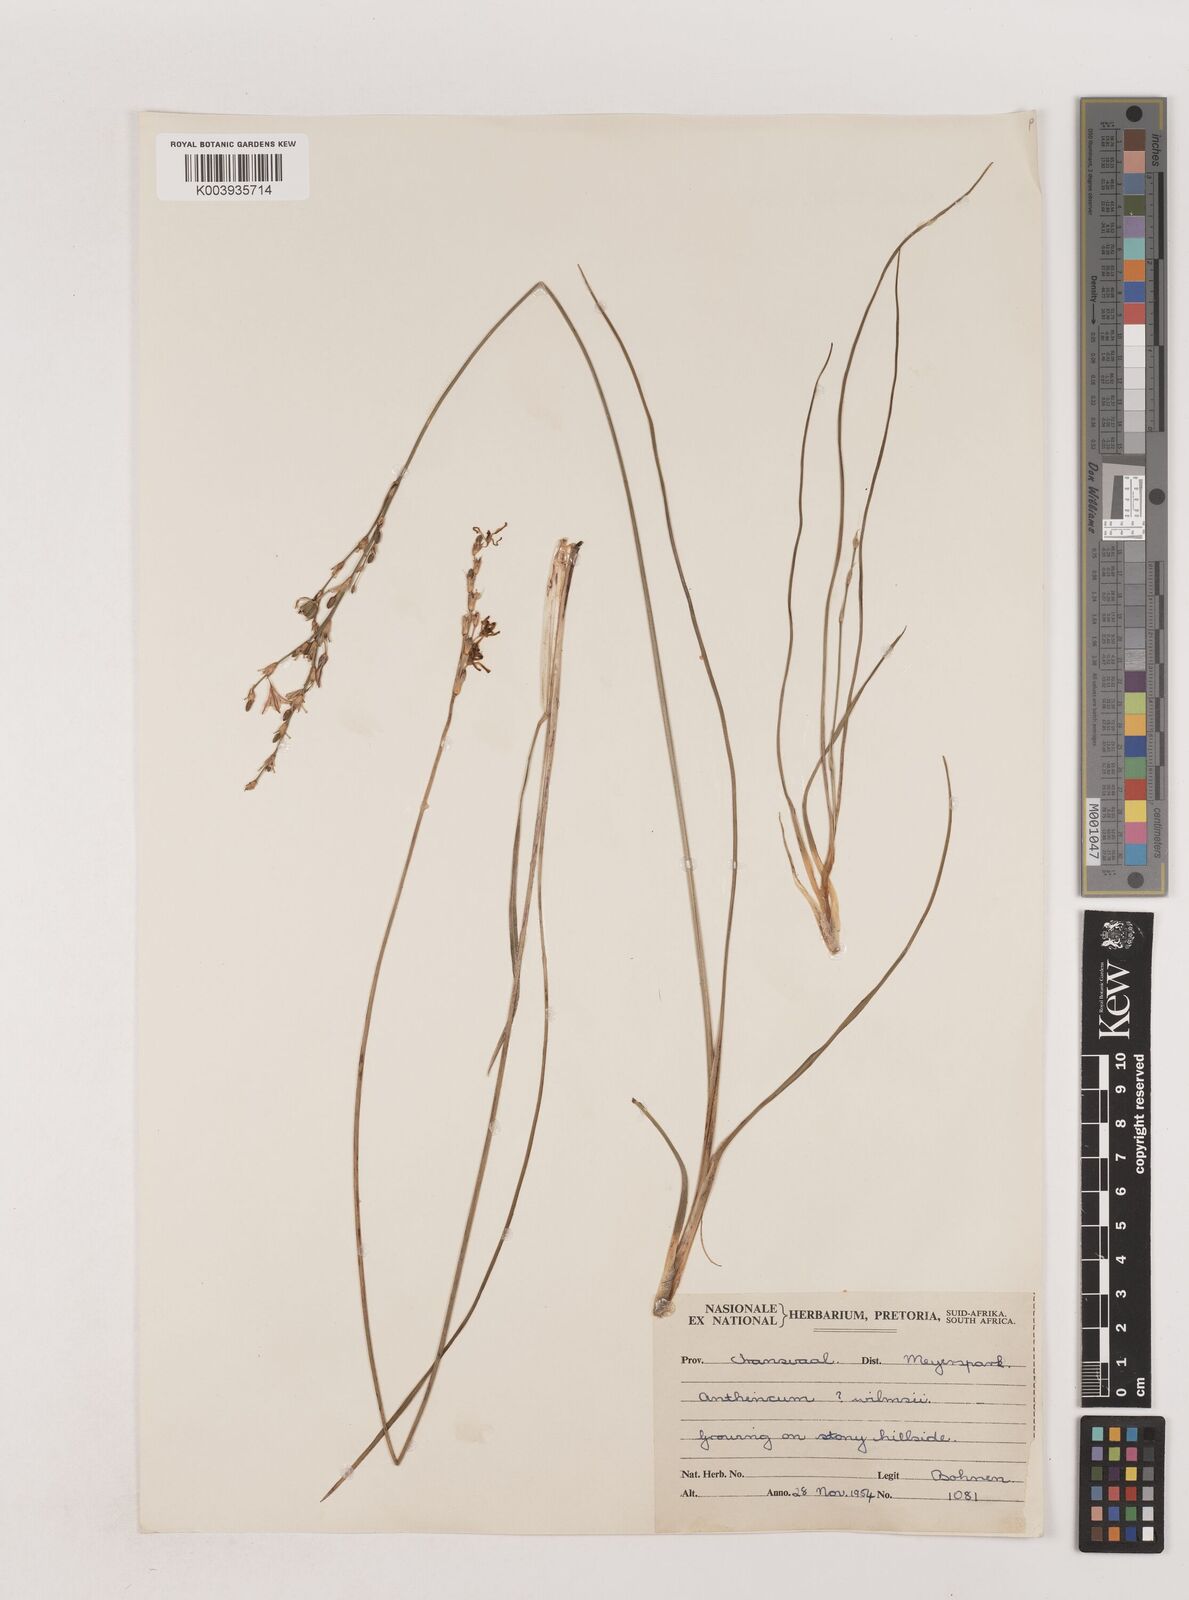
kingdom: Plantae
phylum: Tracheophyta
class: Liliopsida
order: Asparagales
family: Asparagaceae
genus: Chlorophytum
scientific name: Chlorophytum fasciculatum
